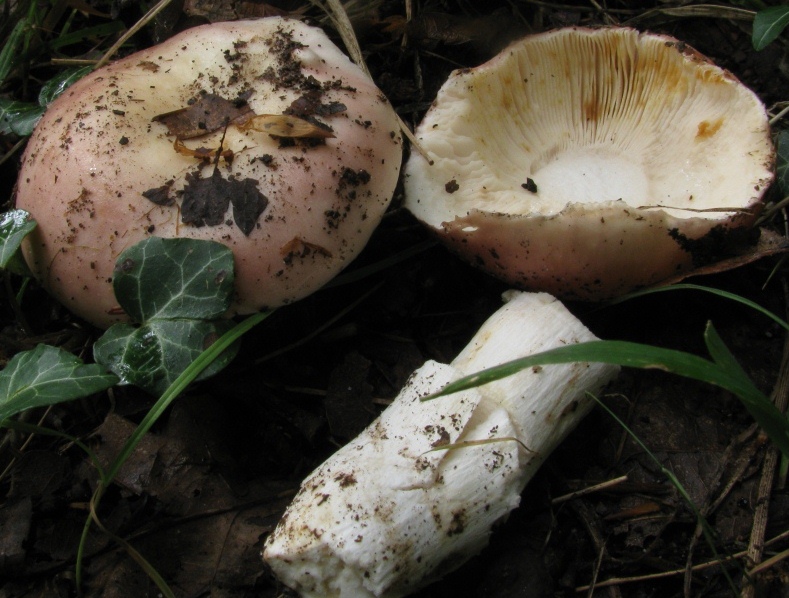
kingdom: Fungi
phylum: Basidiomycota
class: Agaricomycetes
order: Russulales
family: Russulaceae
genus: Russula
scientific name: Russula aurora
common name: rosa skørhat
